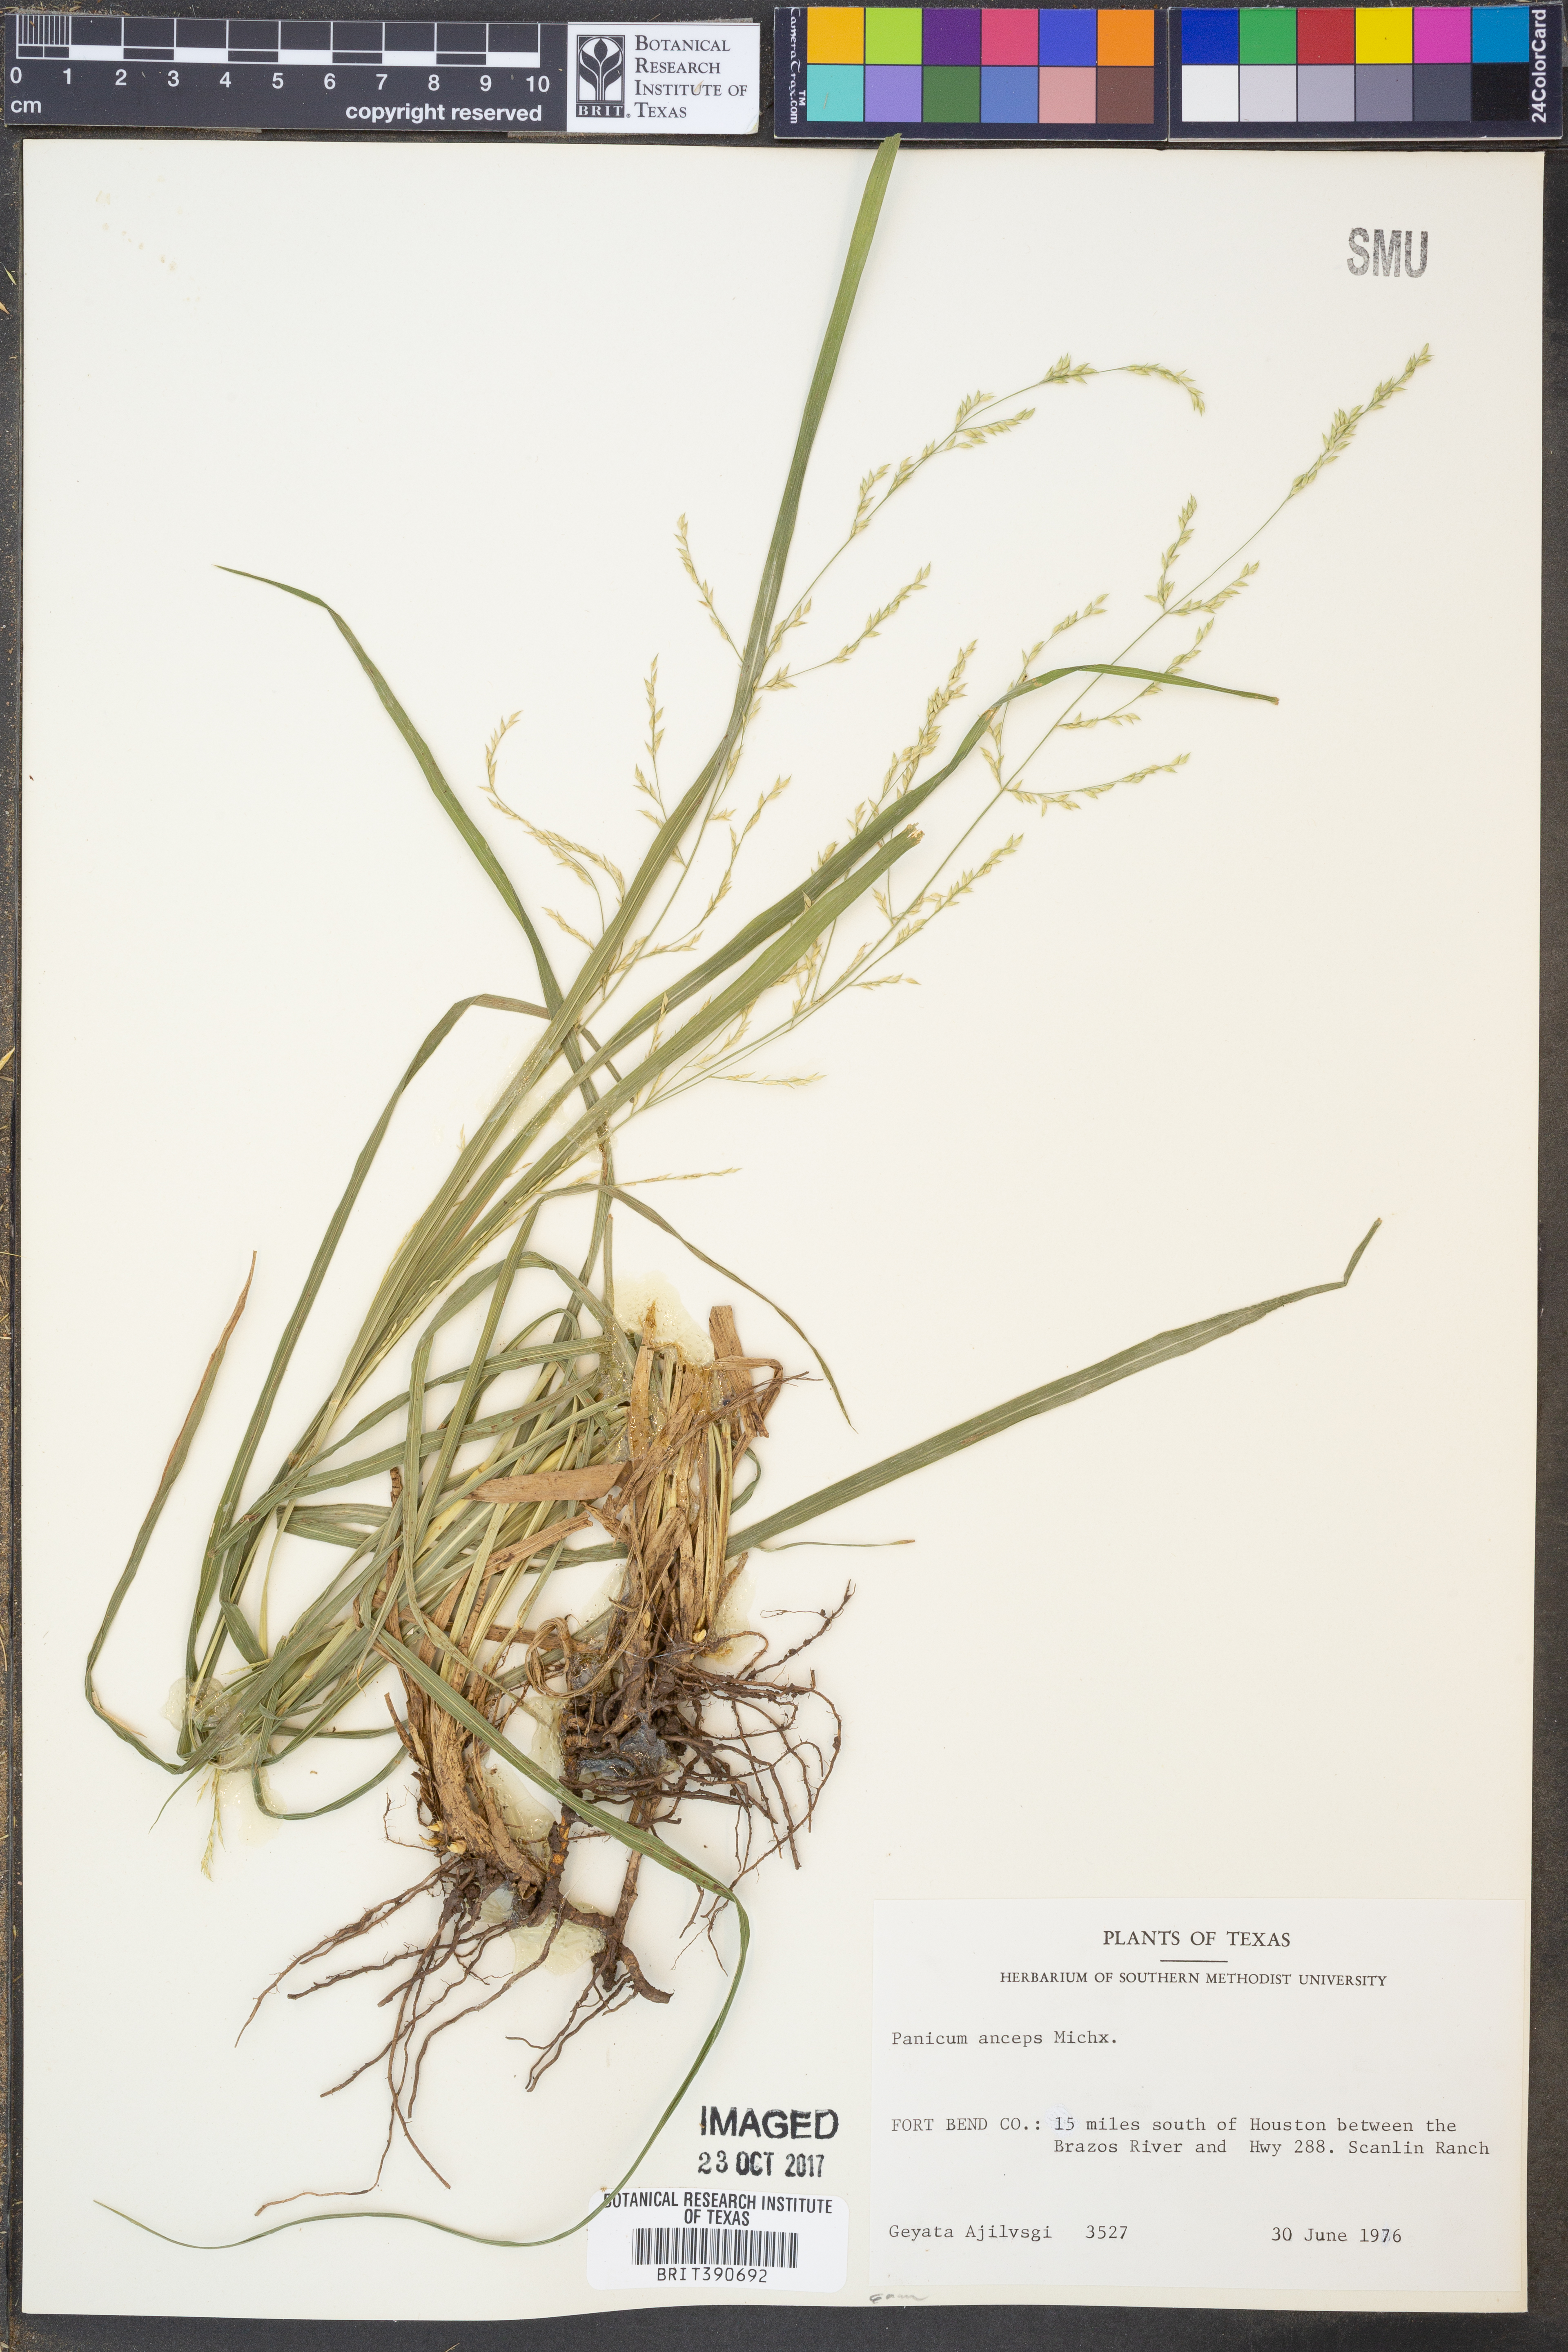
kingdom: Plantae
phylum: Tracheophyta
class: Liliopsida
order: Poales
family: Poaceae
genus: Coleataenia
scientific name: Coleataenia anceps
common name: Beaked panic grass
